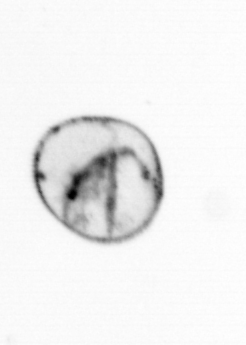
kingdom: Chromista
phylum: Myzozoa
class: Dinophyceae
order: Noctilucales
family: Noctilucaceae
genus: Noctiluca
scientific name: Noctiluca scintillans
